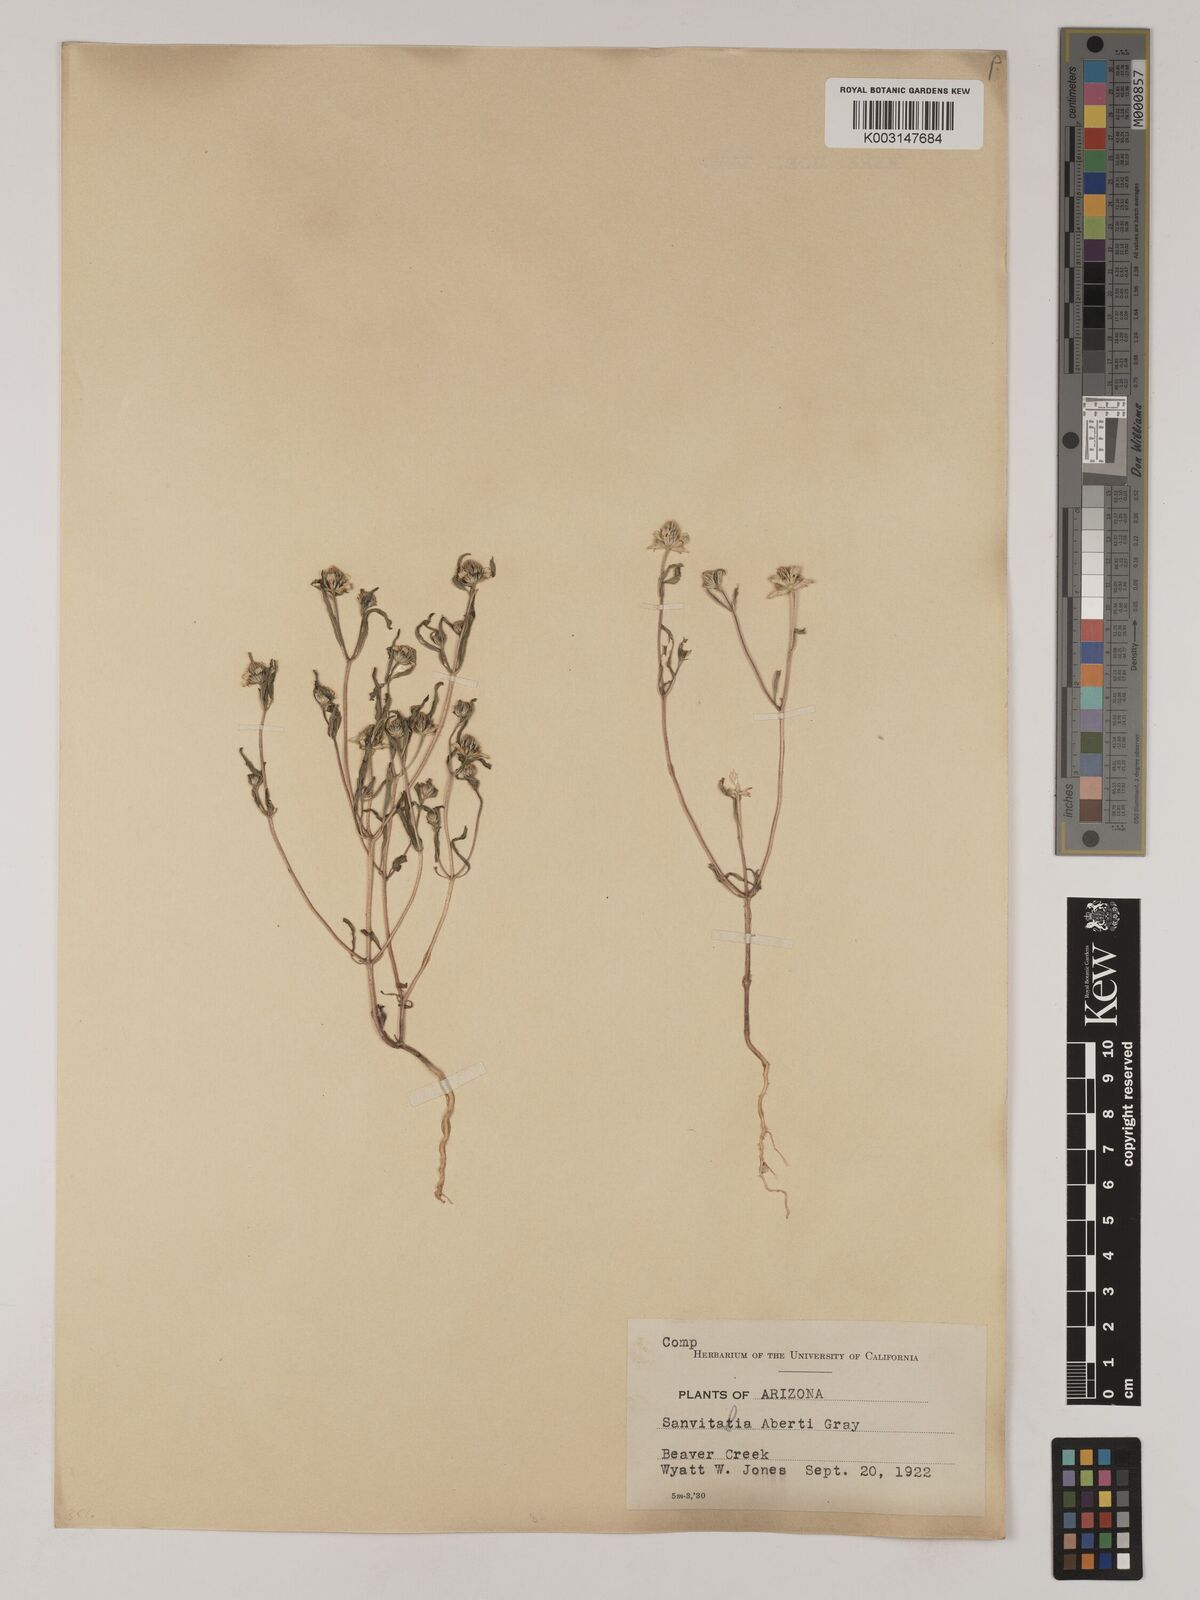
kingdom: Plantae
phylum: Tracheophyta
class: Magnoliopsida
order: Asterales
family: Asteraceae
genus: Sanvitalia
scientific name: Sanvitalia abertii
